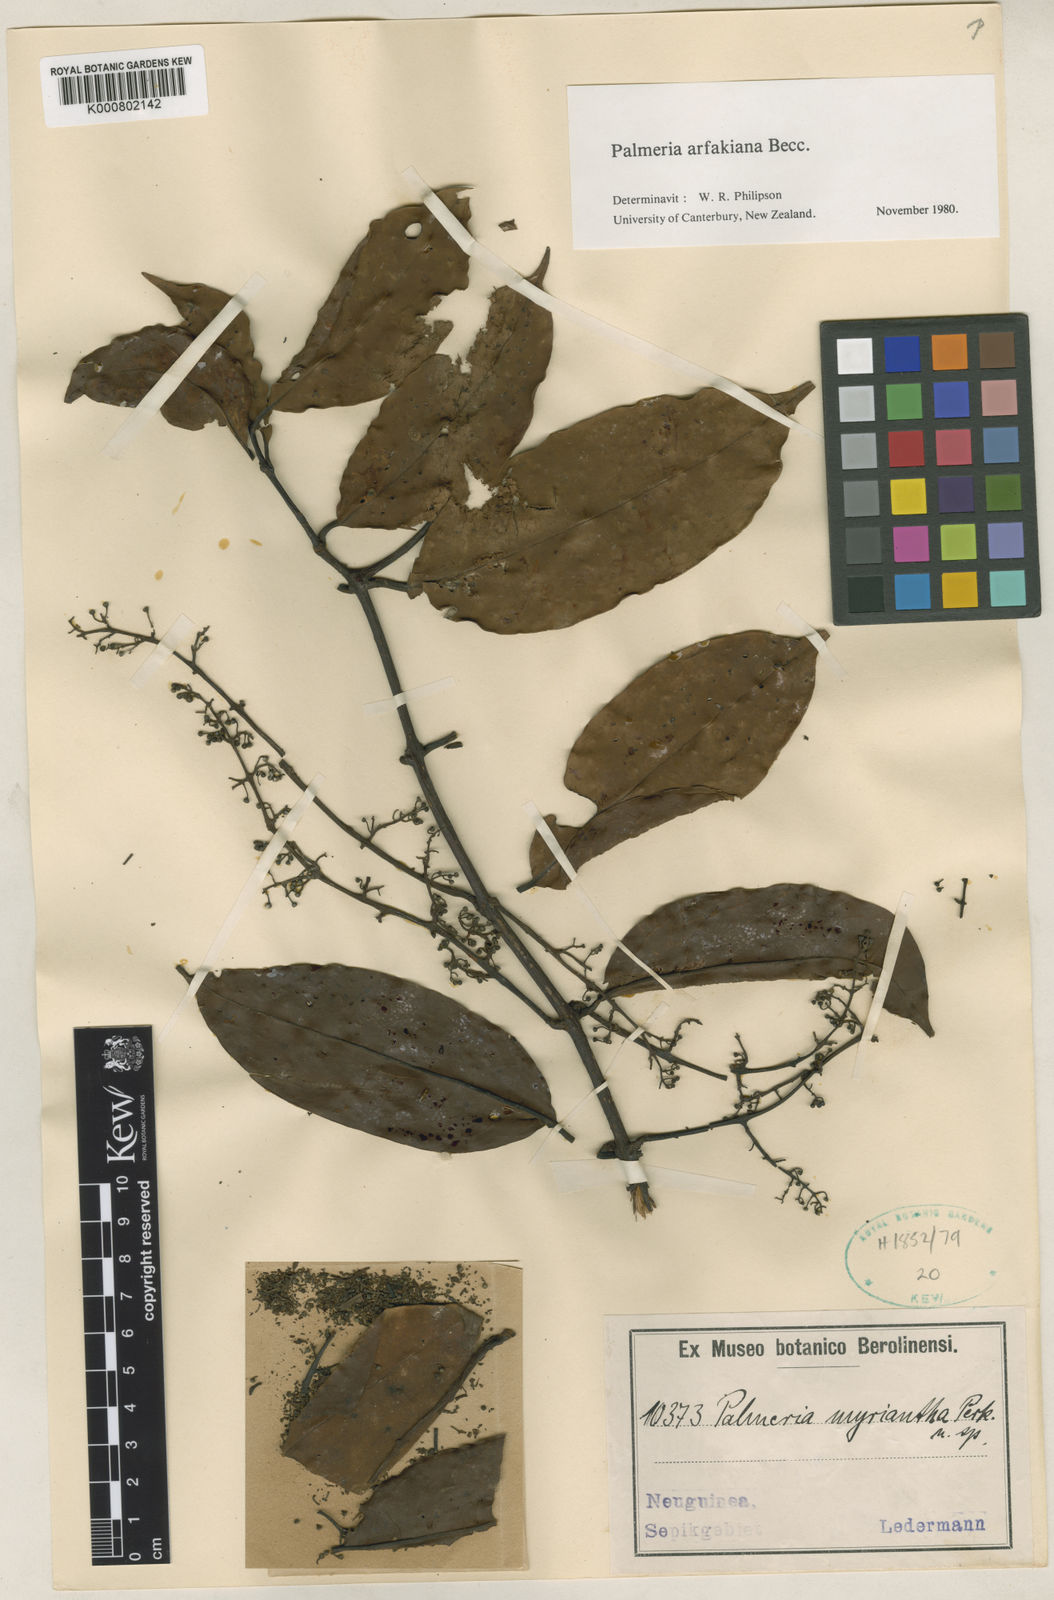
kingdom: Plantae
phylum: Tracheophyta
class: Magnoliopsida
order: Laurales
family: Monimiaceae
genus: Palmeria
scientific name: Palmeria arfakiana
